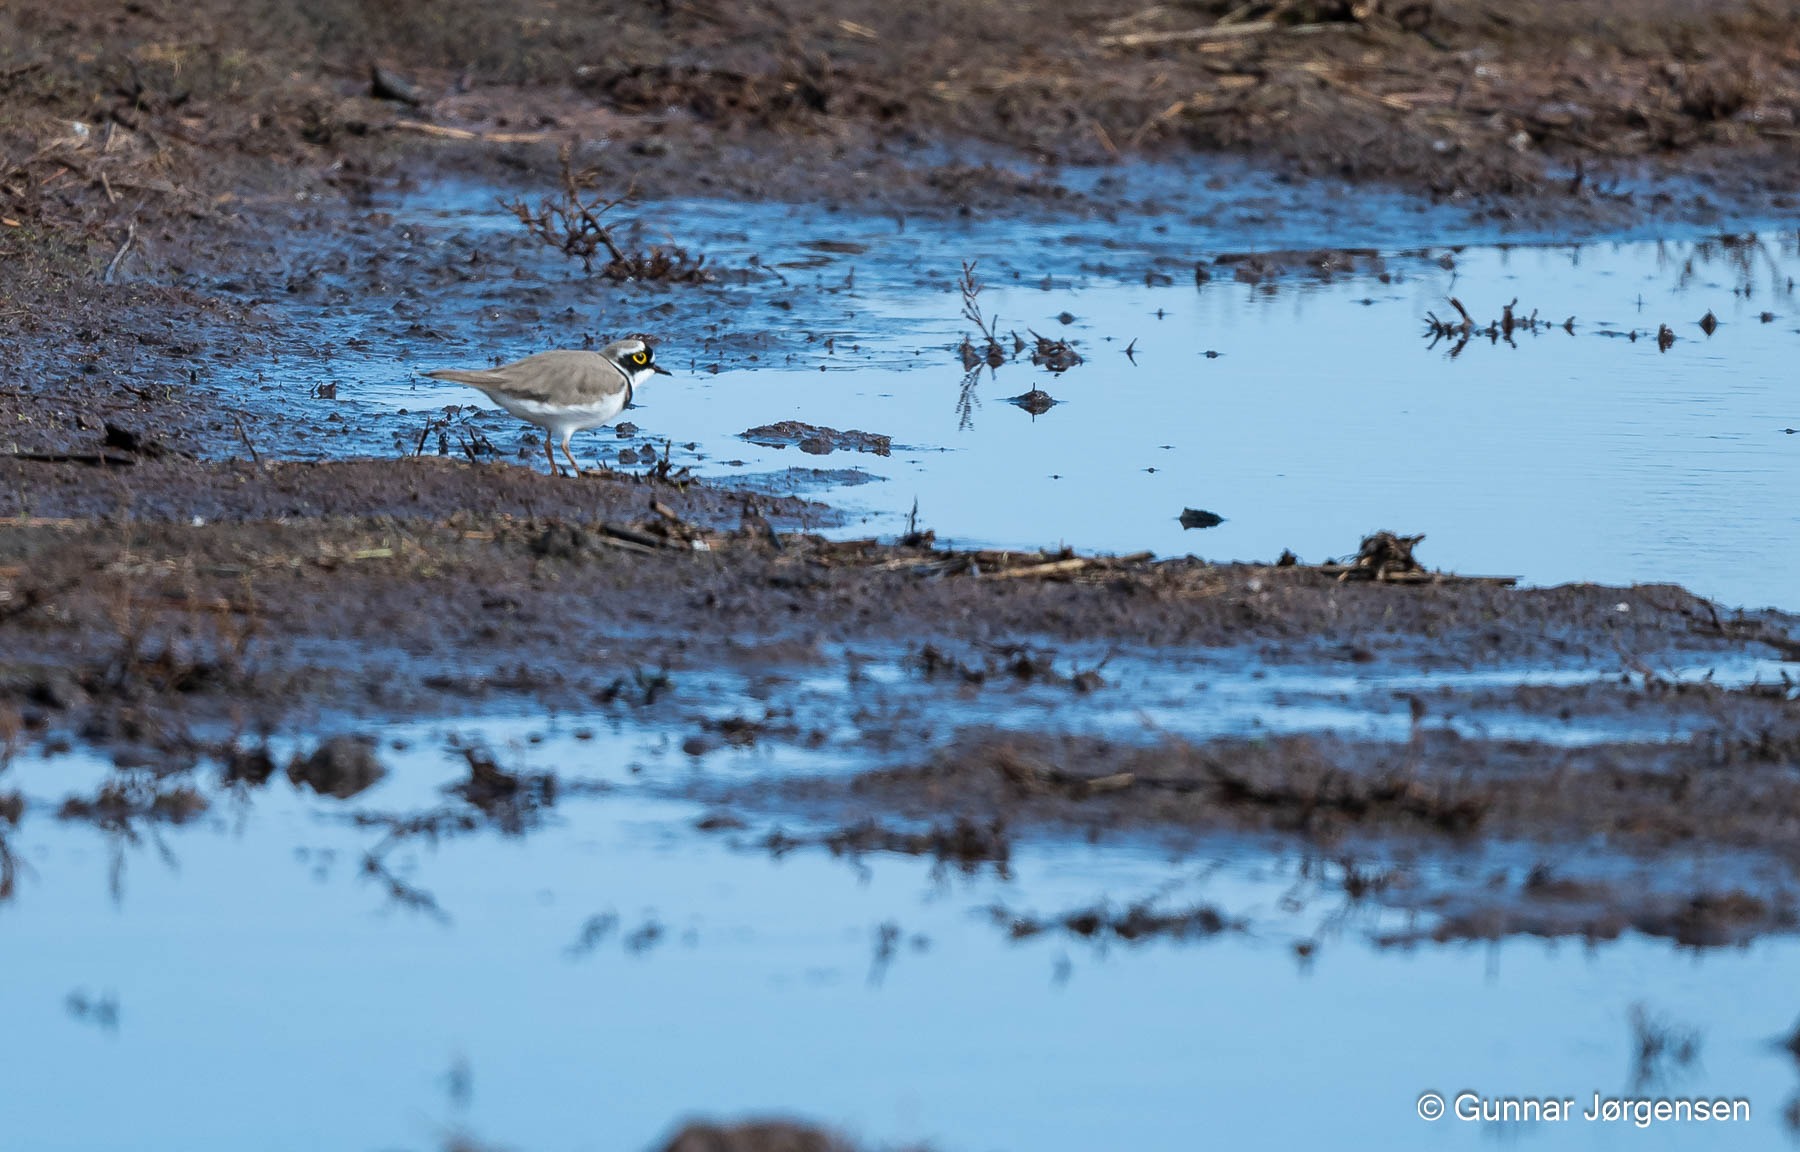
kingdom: Animalia
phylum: Chordata
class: Aves
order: Charadriiformes
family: Charadriidae
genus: Charadrius
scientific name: Charadrius dubius
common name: Lille præstekrave
